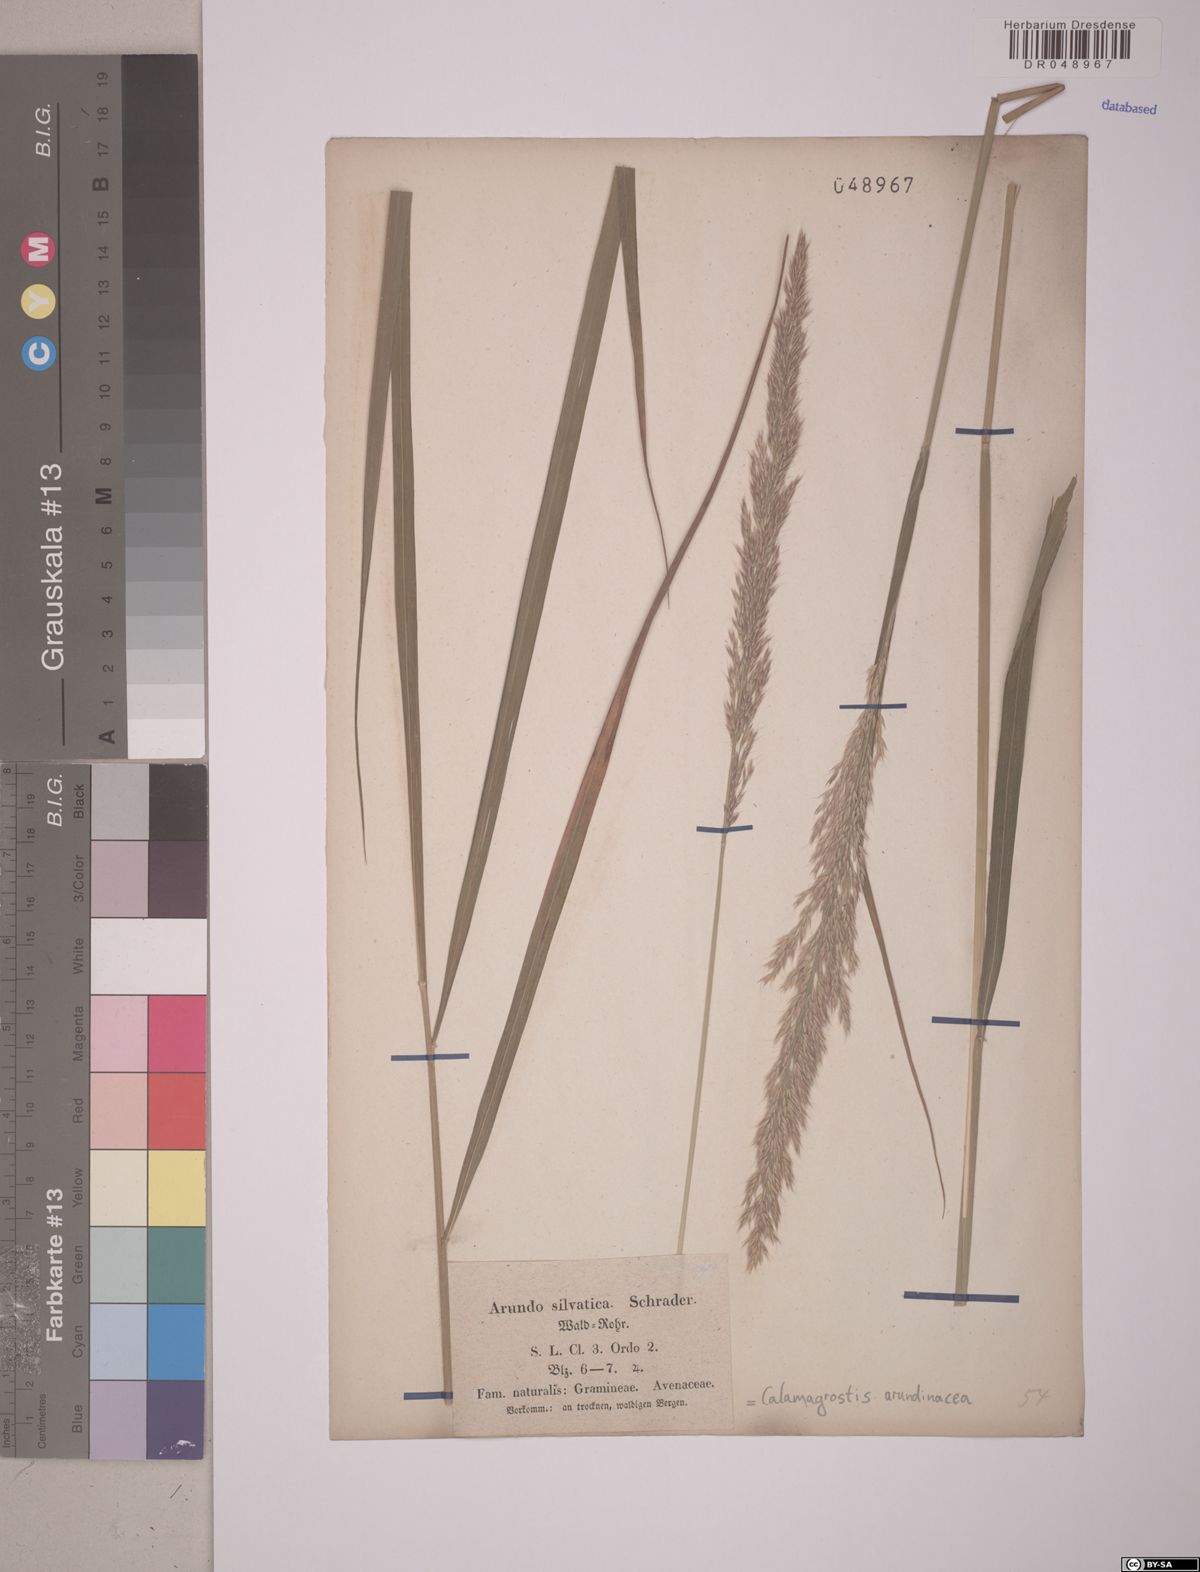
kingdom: Plantae
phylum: Tracheophyta
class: Liliopsida
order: Poales
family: Poaceae
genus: Calamagrostis
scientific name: Calamagrostis arundinacea
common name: Metskastik
